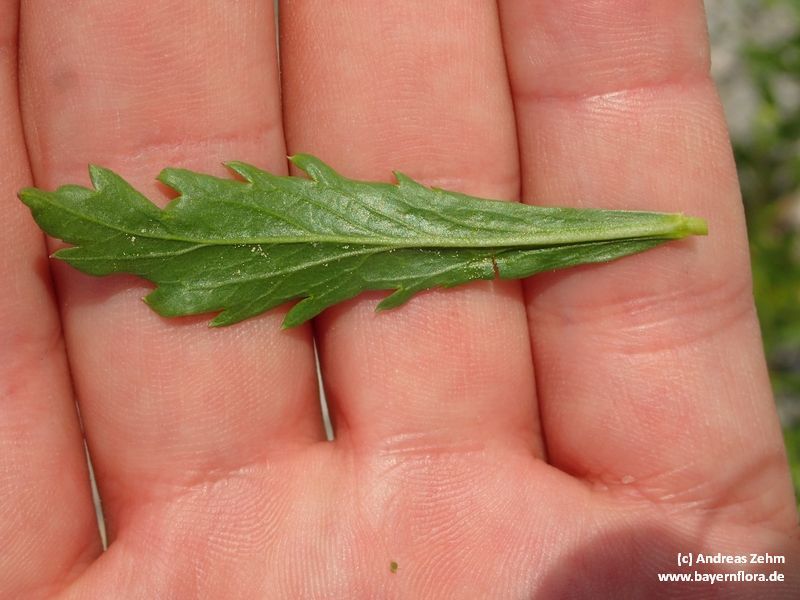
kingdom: Plantae
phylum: Tracheophyta
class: Magnoliopsida
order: Brassicales
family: Brassicaceae
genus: Lepidium
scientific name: Lepidium virginicum
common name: Least pepperwort
